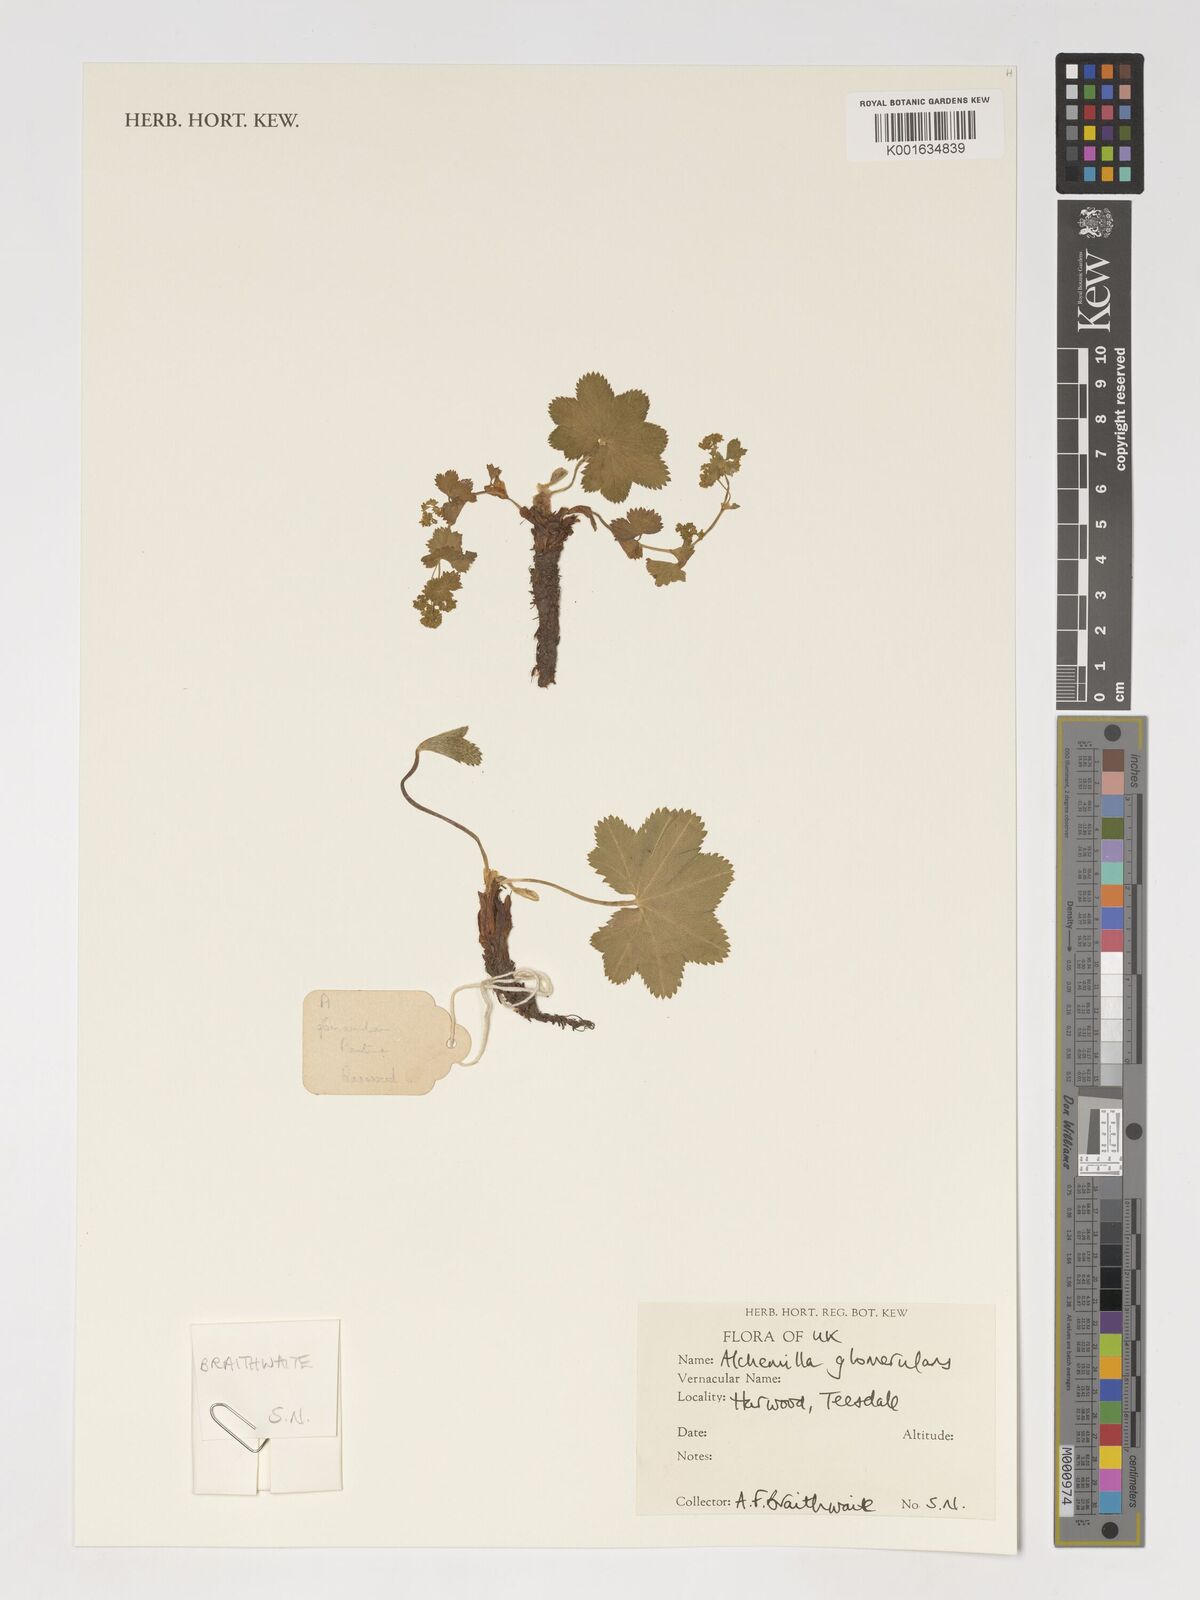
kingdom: Plantae
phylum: Tracheophyta
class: Magnoliopsida
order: Rosales
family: Rosaceae
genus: Alchemilla
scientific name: Alchemilla glomerulans
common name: Clustered lady's mantle
